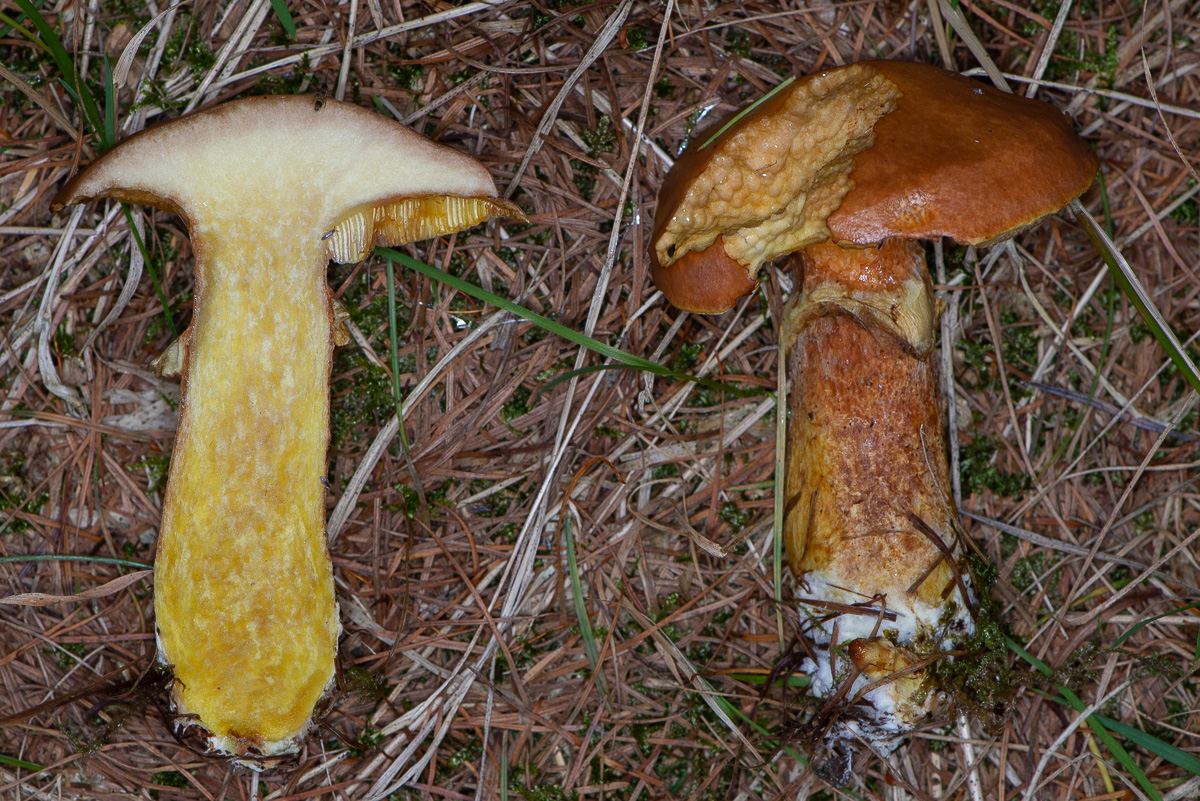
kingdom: Fungi
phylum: Basidiomycota
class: Agaricomycetes
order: Boletales
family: Suillaceae
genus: Suillus
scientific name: Suillus grevillei
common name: lærke-slimrørhat
